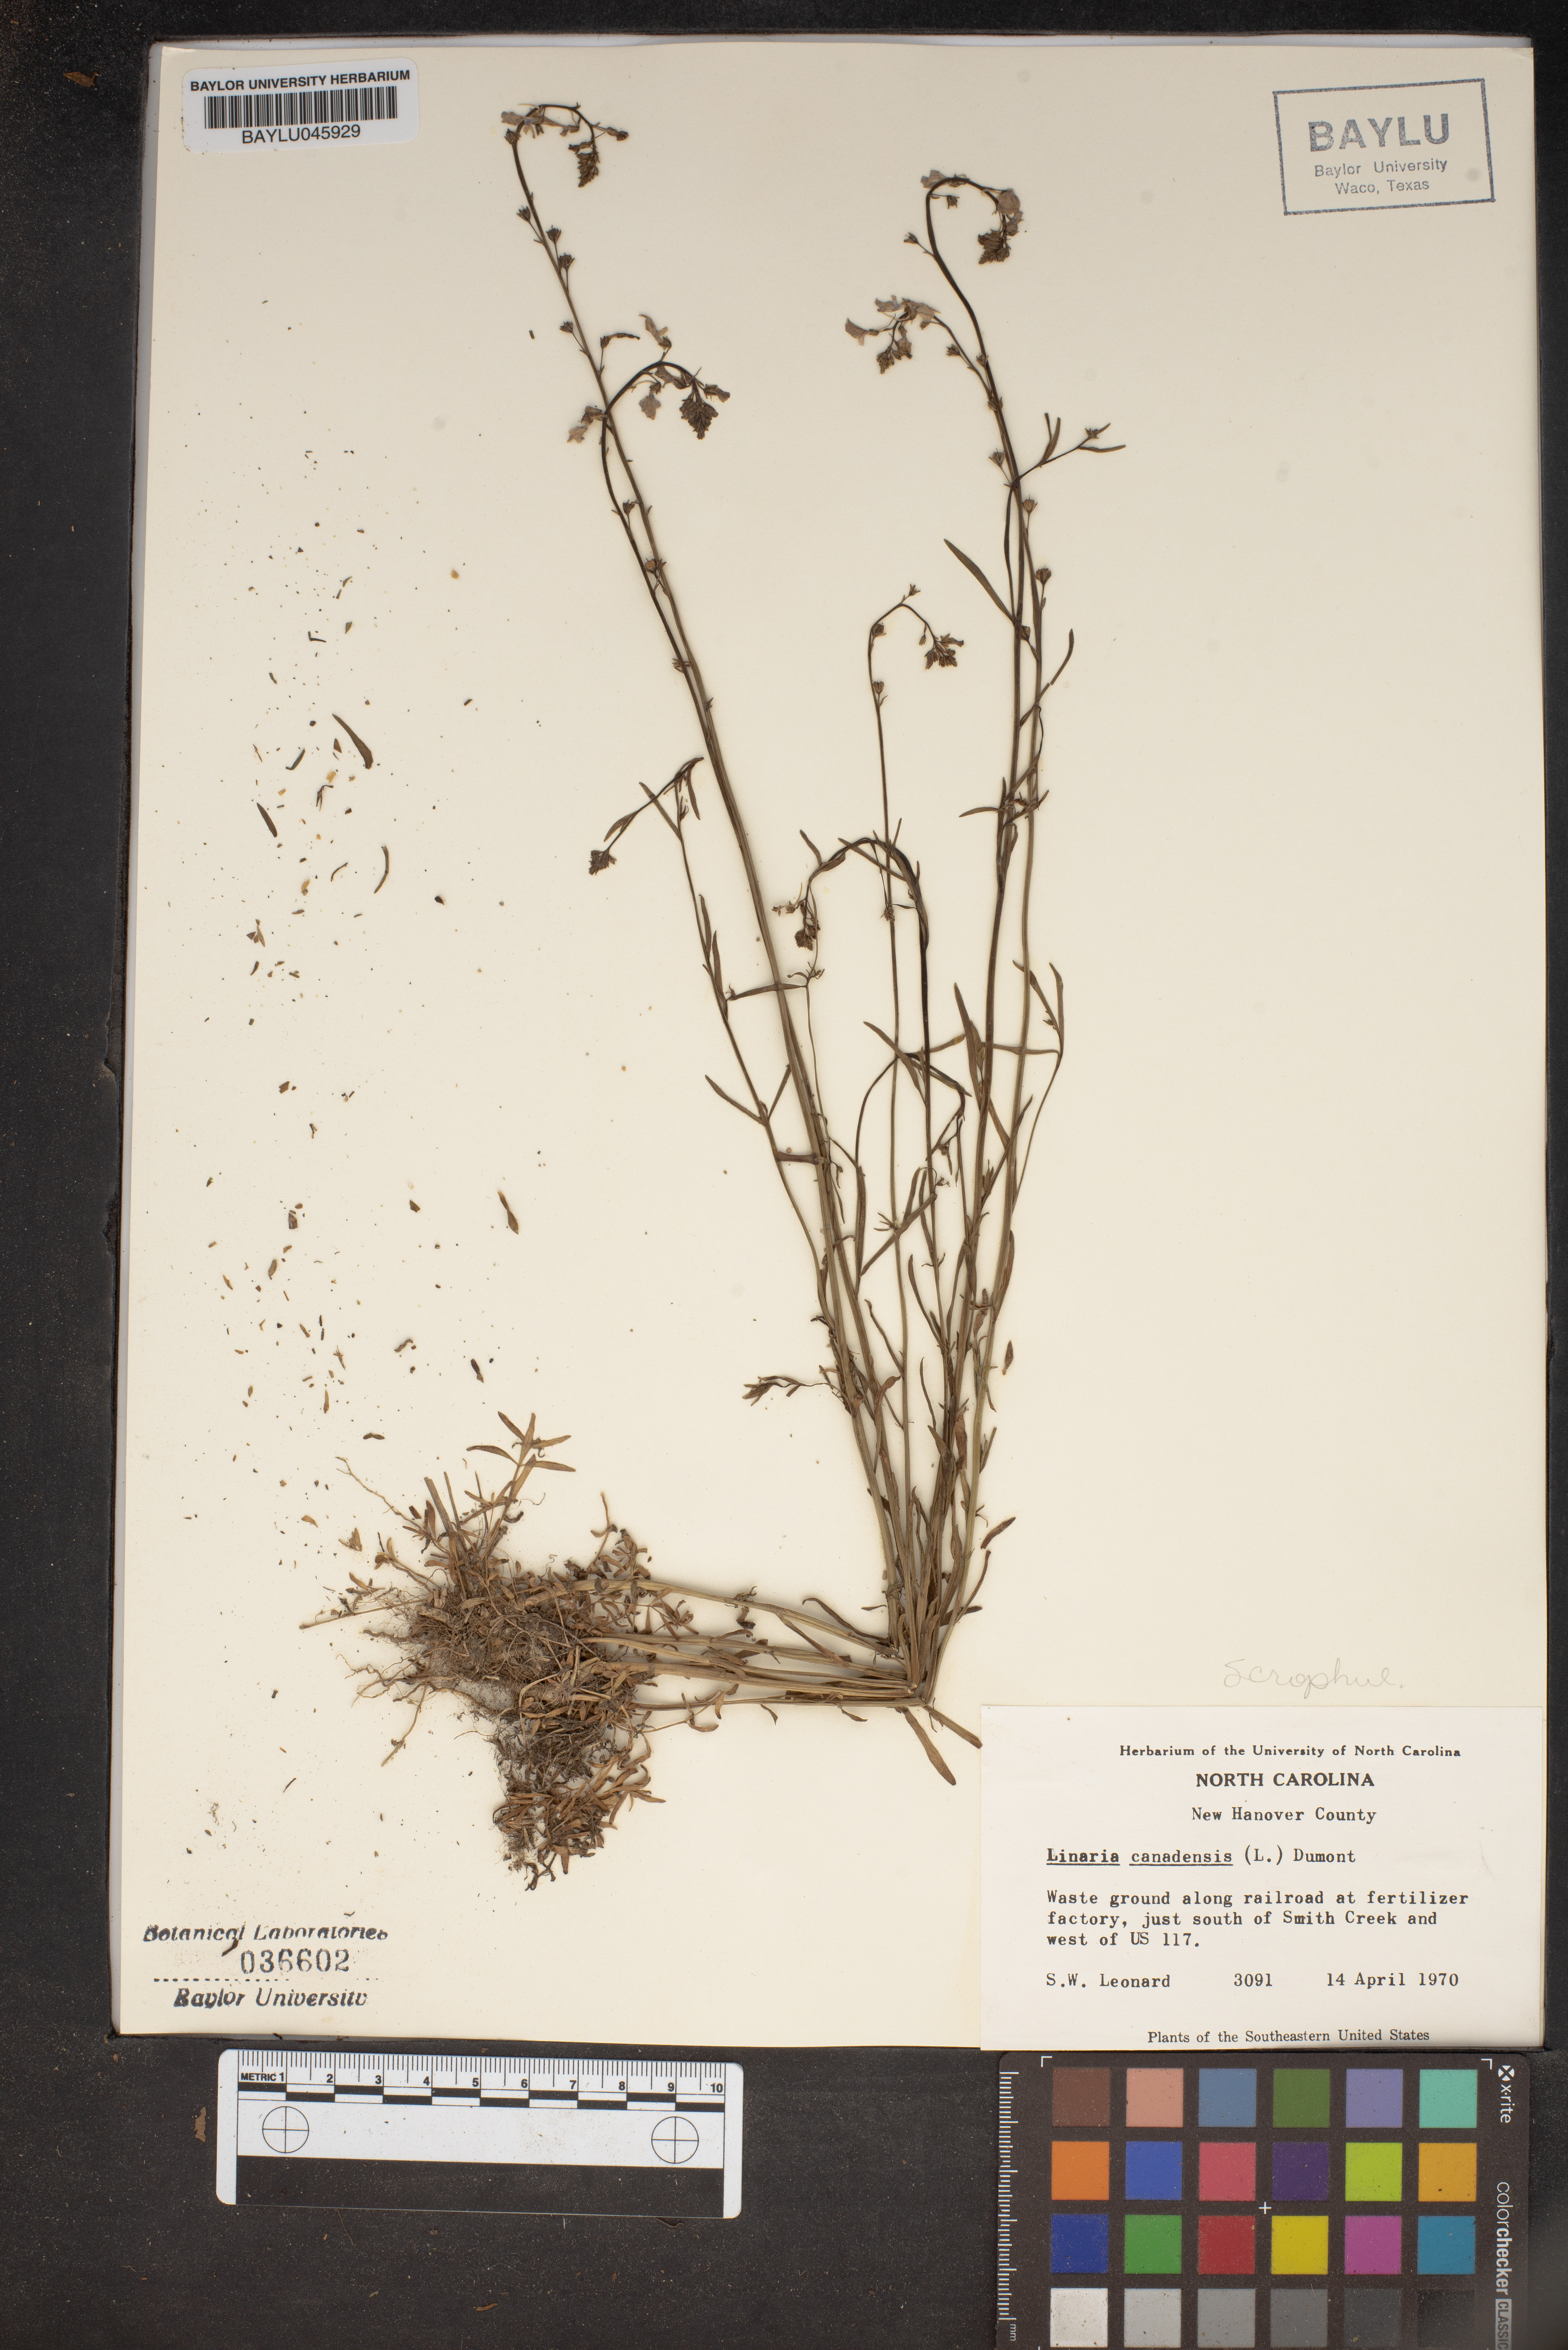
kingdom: Plantae
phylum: Tracheophyta
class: Magnoliopsida
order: Lamiales
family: Plantaginaceae
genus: Nuttallanthus
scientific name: Nuttallanthus canadensis
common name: Blue toadflax
